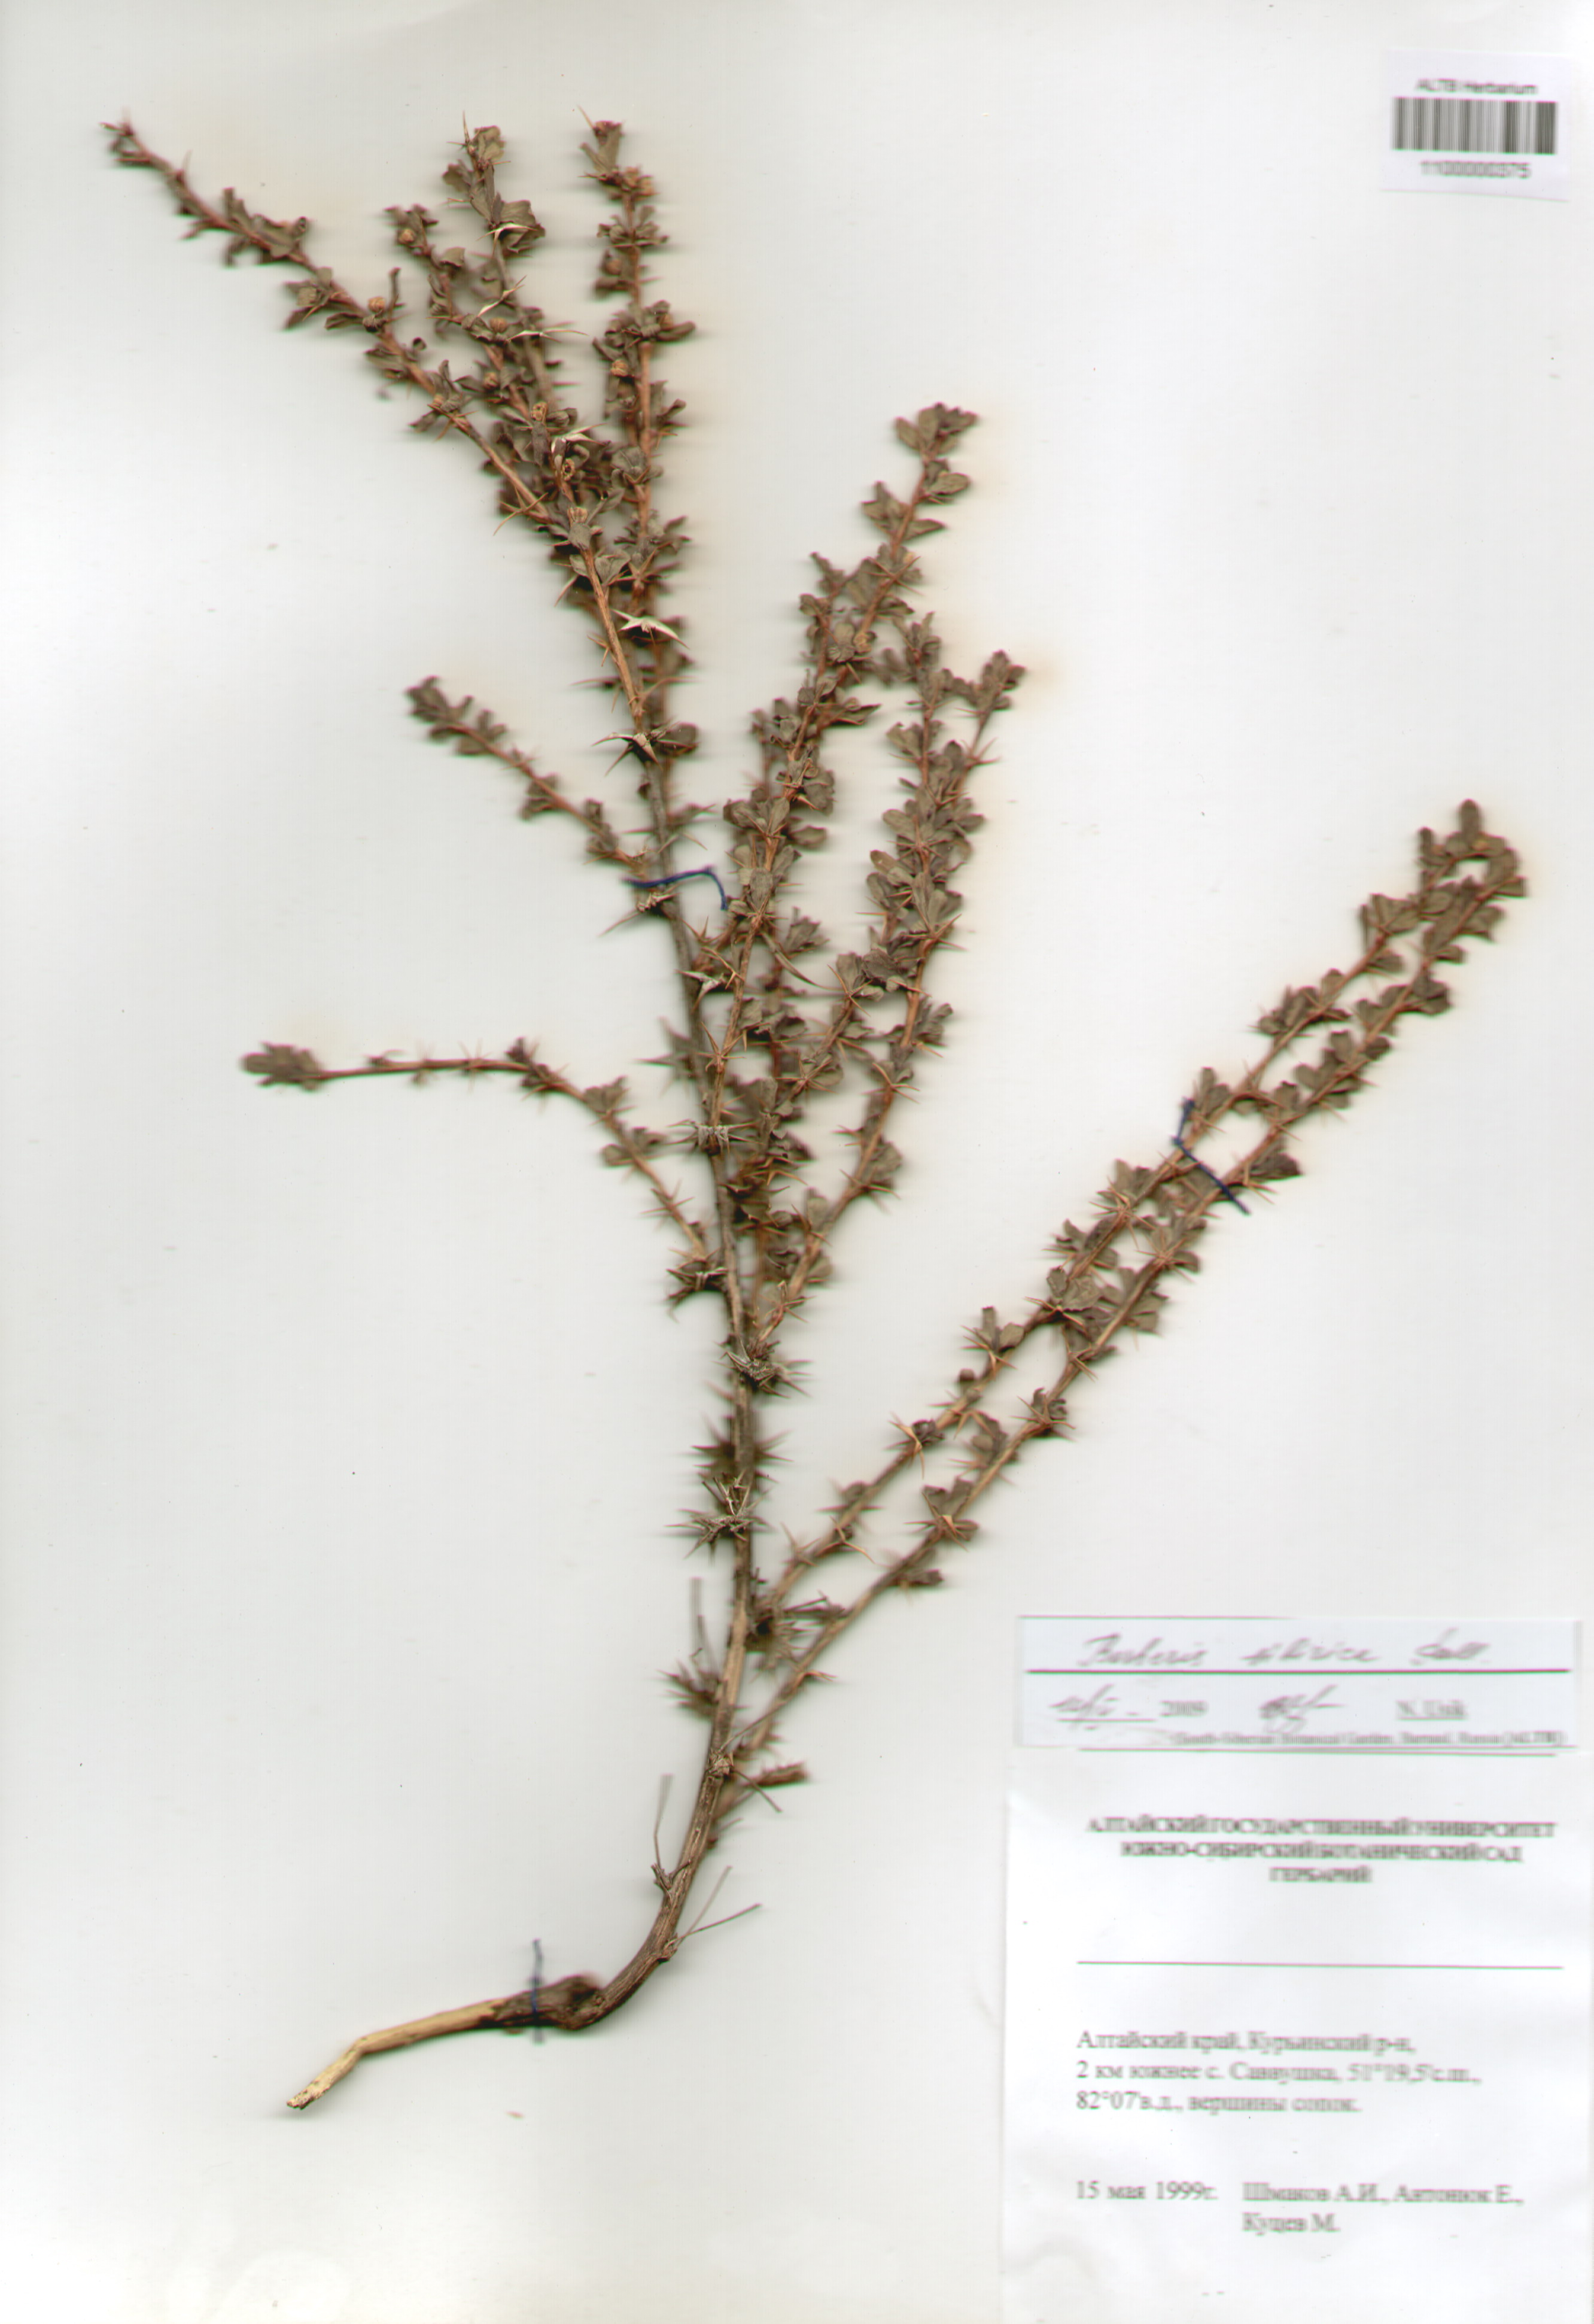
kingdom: Plantae
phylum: Tracheophyta
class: Magnoliopsida
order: Ranunculales
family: Berberidaceae
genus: Berberis
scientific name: Berberis sibirica
